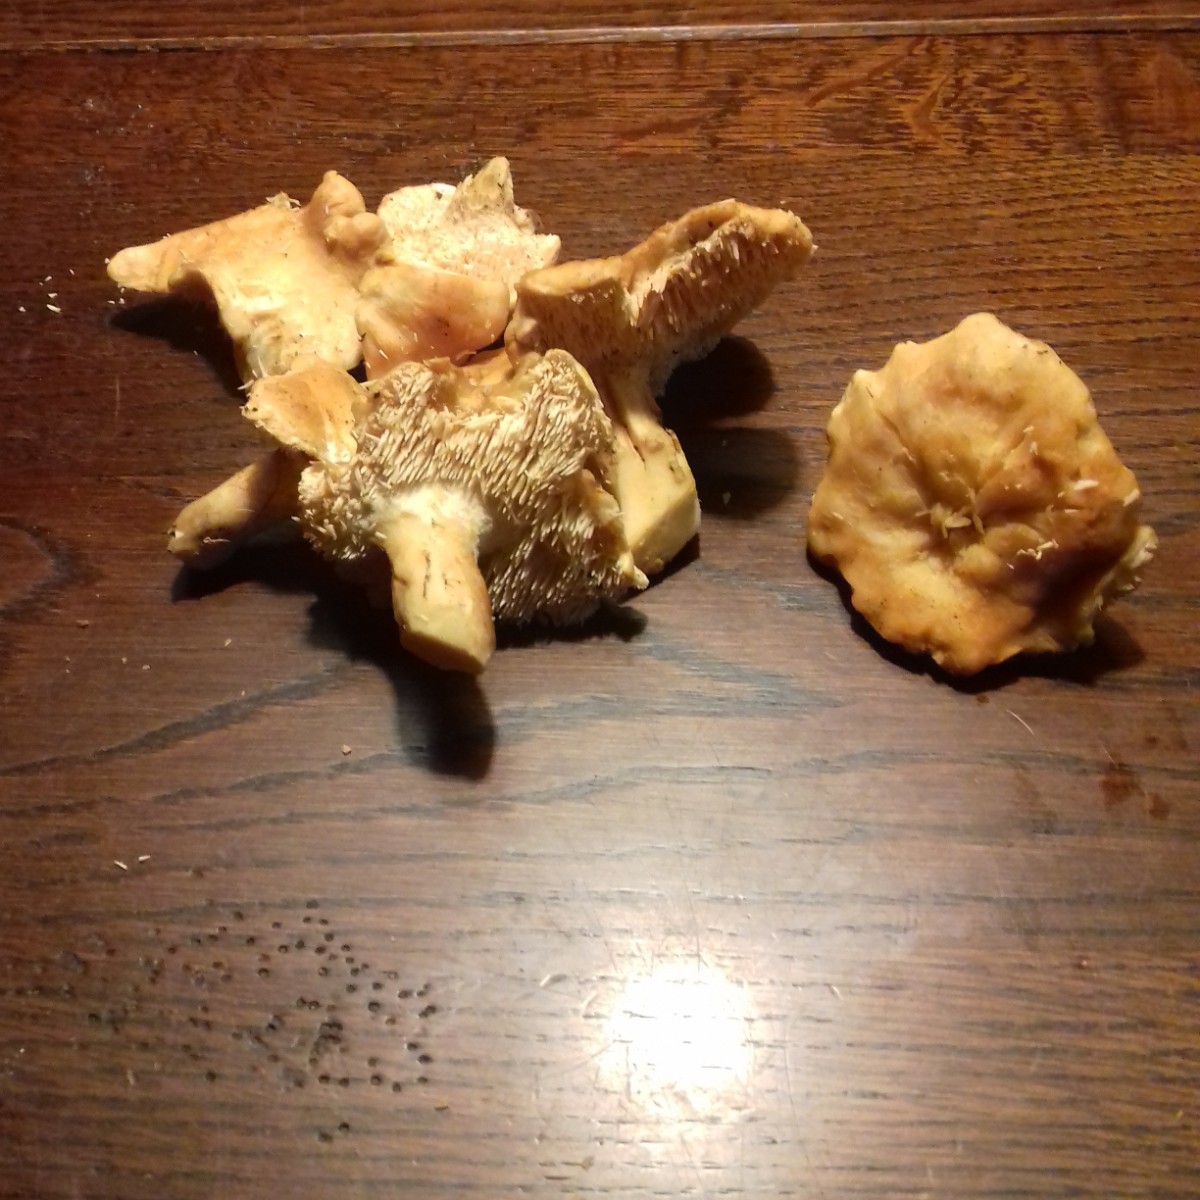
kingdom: Fungi
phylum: Basidiomycota
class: Agaricomycetes
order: Cantharellales
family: Hydnaceae
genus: Hydnum
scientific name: Hydnum
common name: pigsvamp
